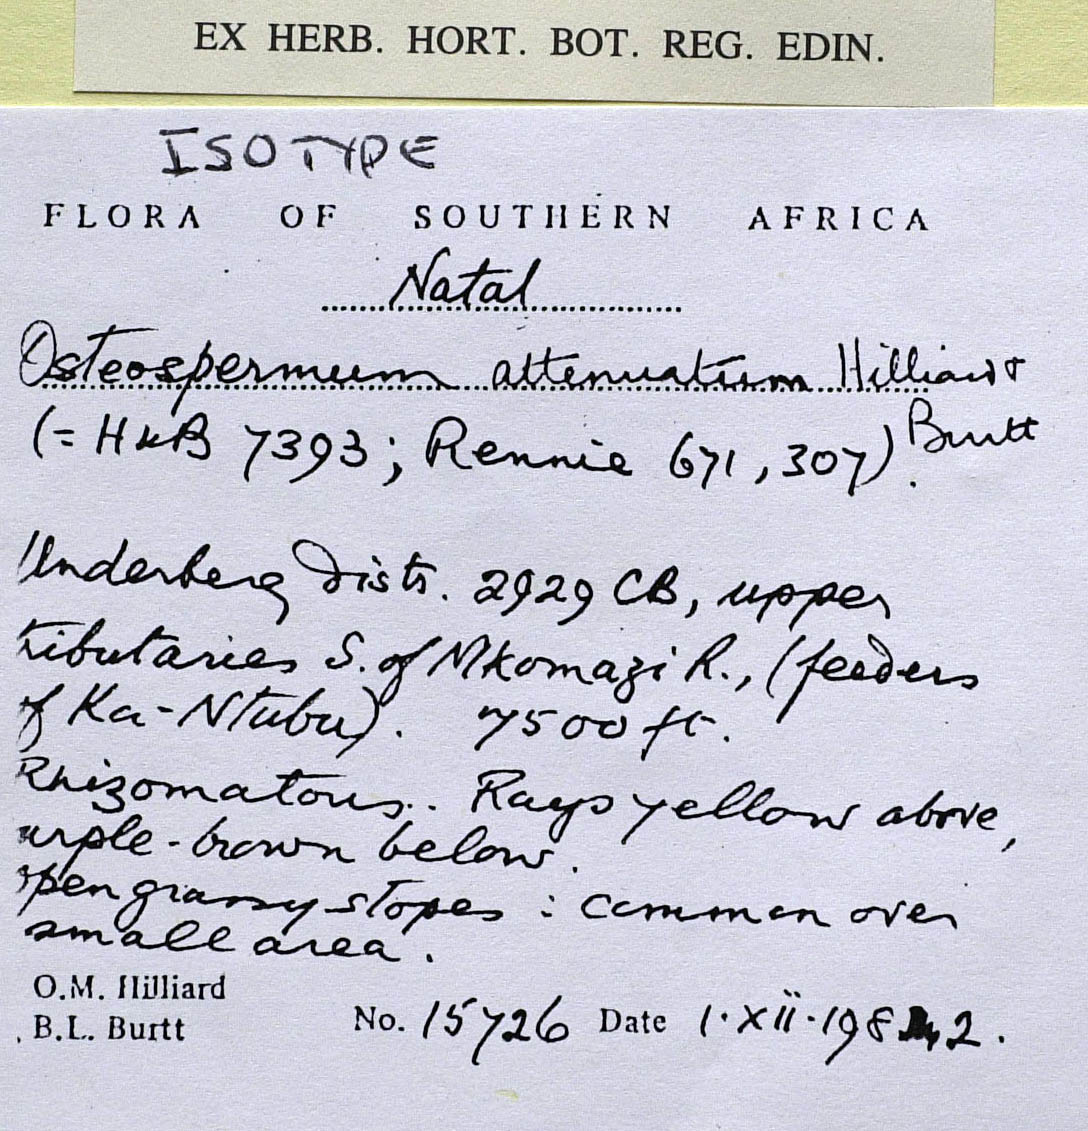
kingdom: Plantae
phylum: Tracheophyta
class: Magnoliopsida
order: Asterales
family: Asteraceae
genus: Osteospermum
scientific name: Osteospermum attenuatum
